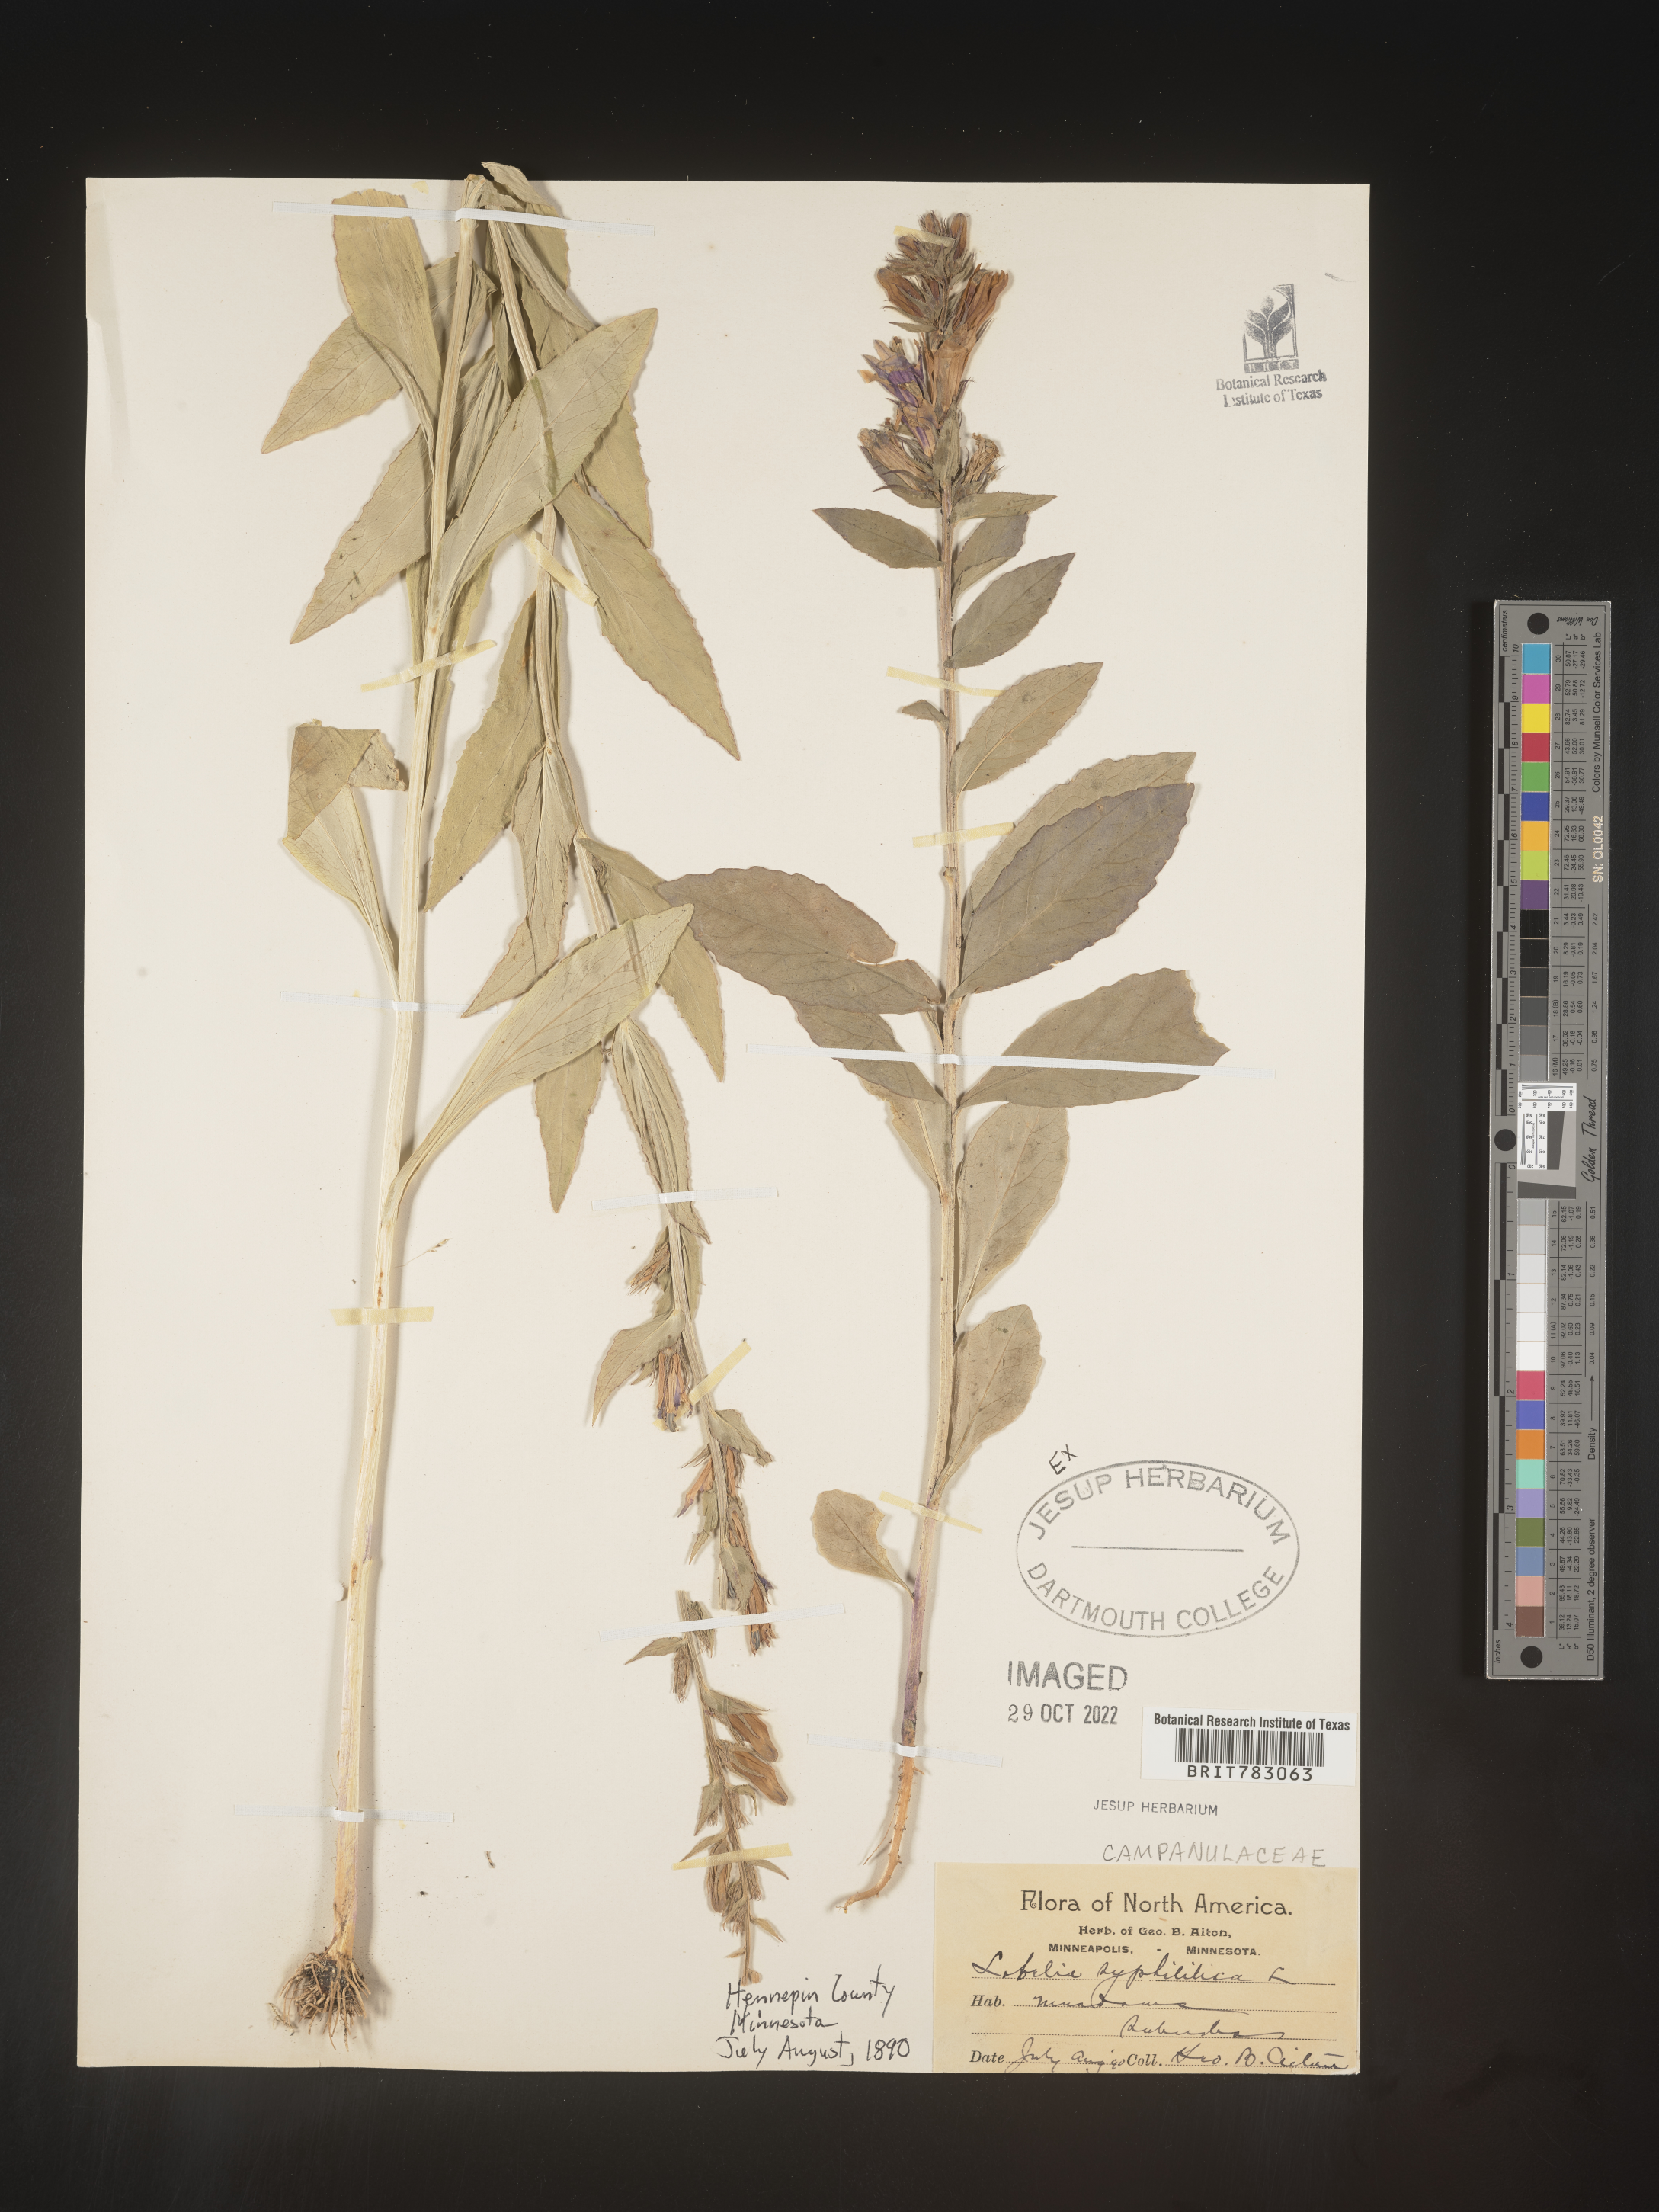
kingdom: Plantae
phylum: Tracheophyta
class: Magnoliopsida
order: Asterales
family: Campanulaceae
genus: Lobelia
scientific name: Lobelia siphilitica
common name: Great lobelia
